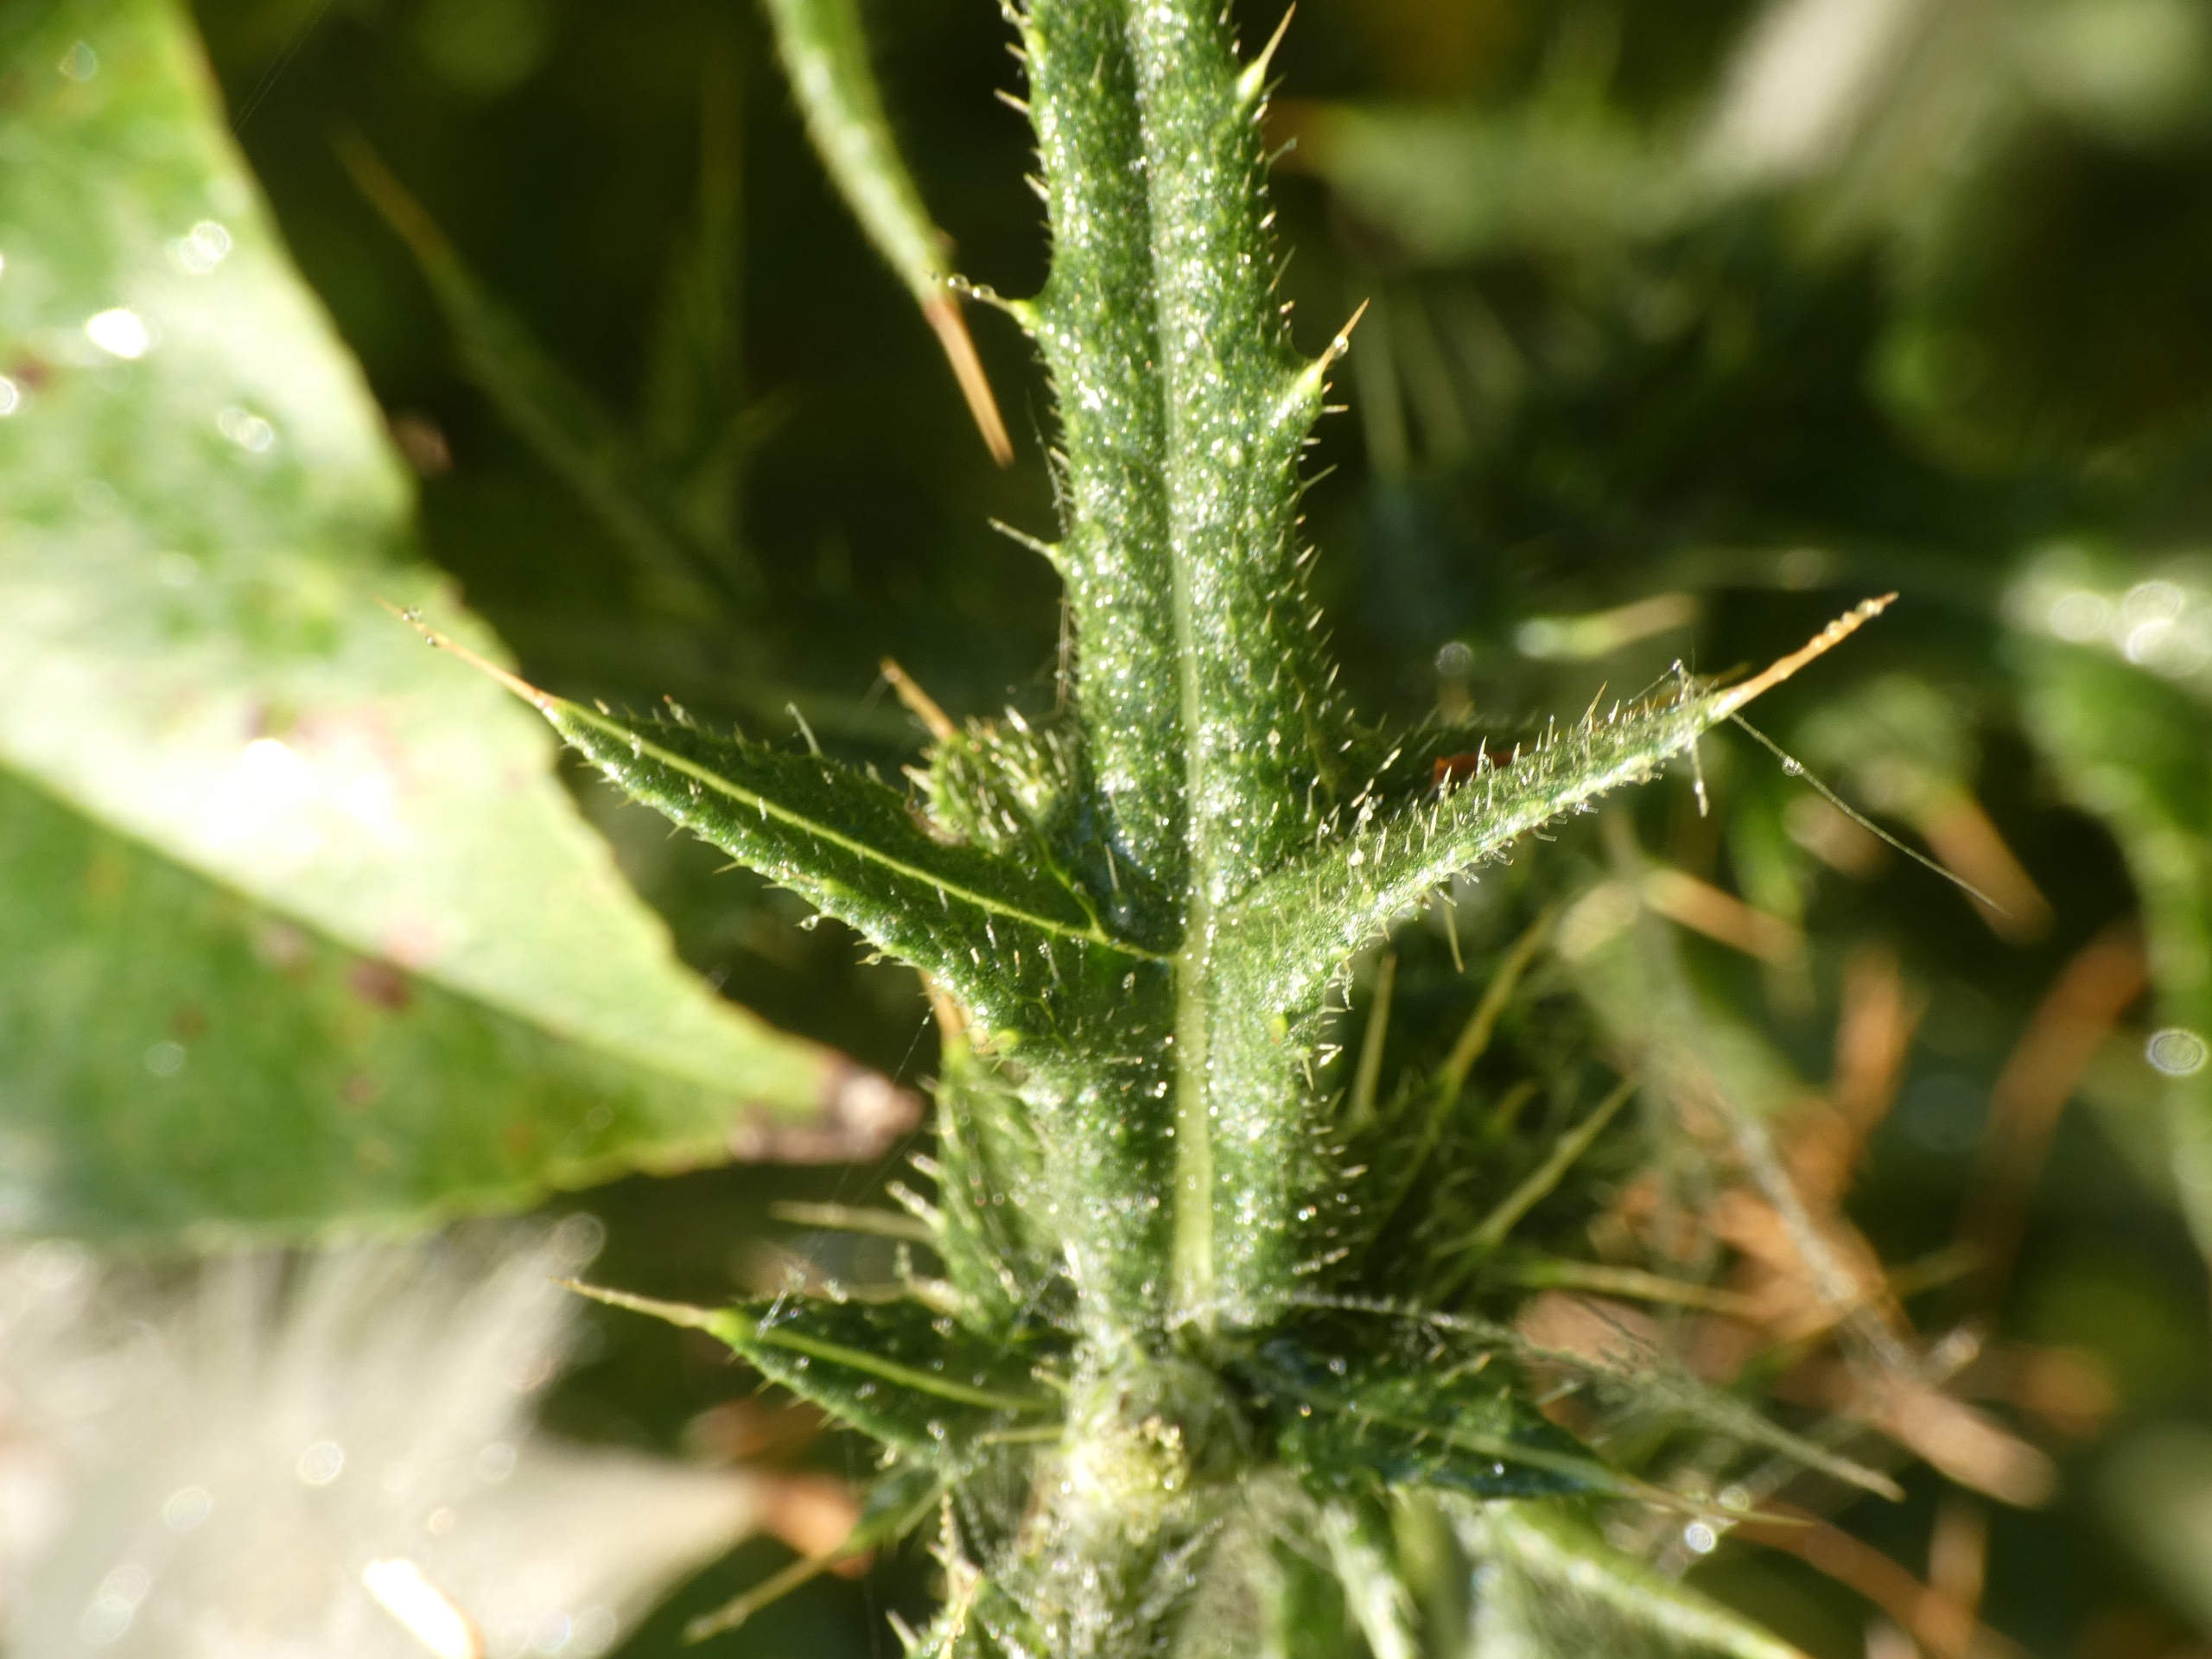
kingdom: Plantae
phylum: Tracheophyta
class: Magnoliopsida
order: Asterales
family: Asteraceae
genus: Cirsium
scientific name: Cirsium vulgare
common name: Horse-tidsel
